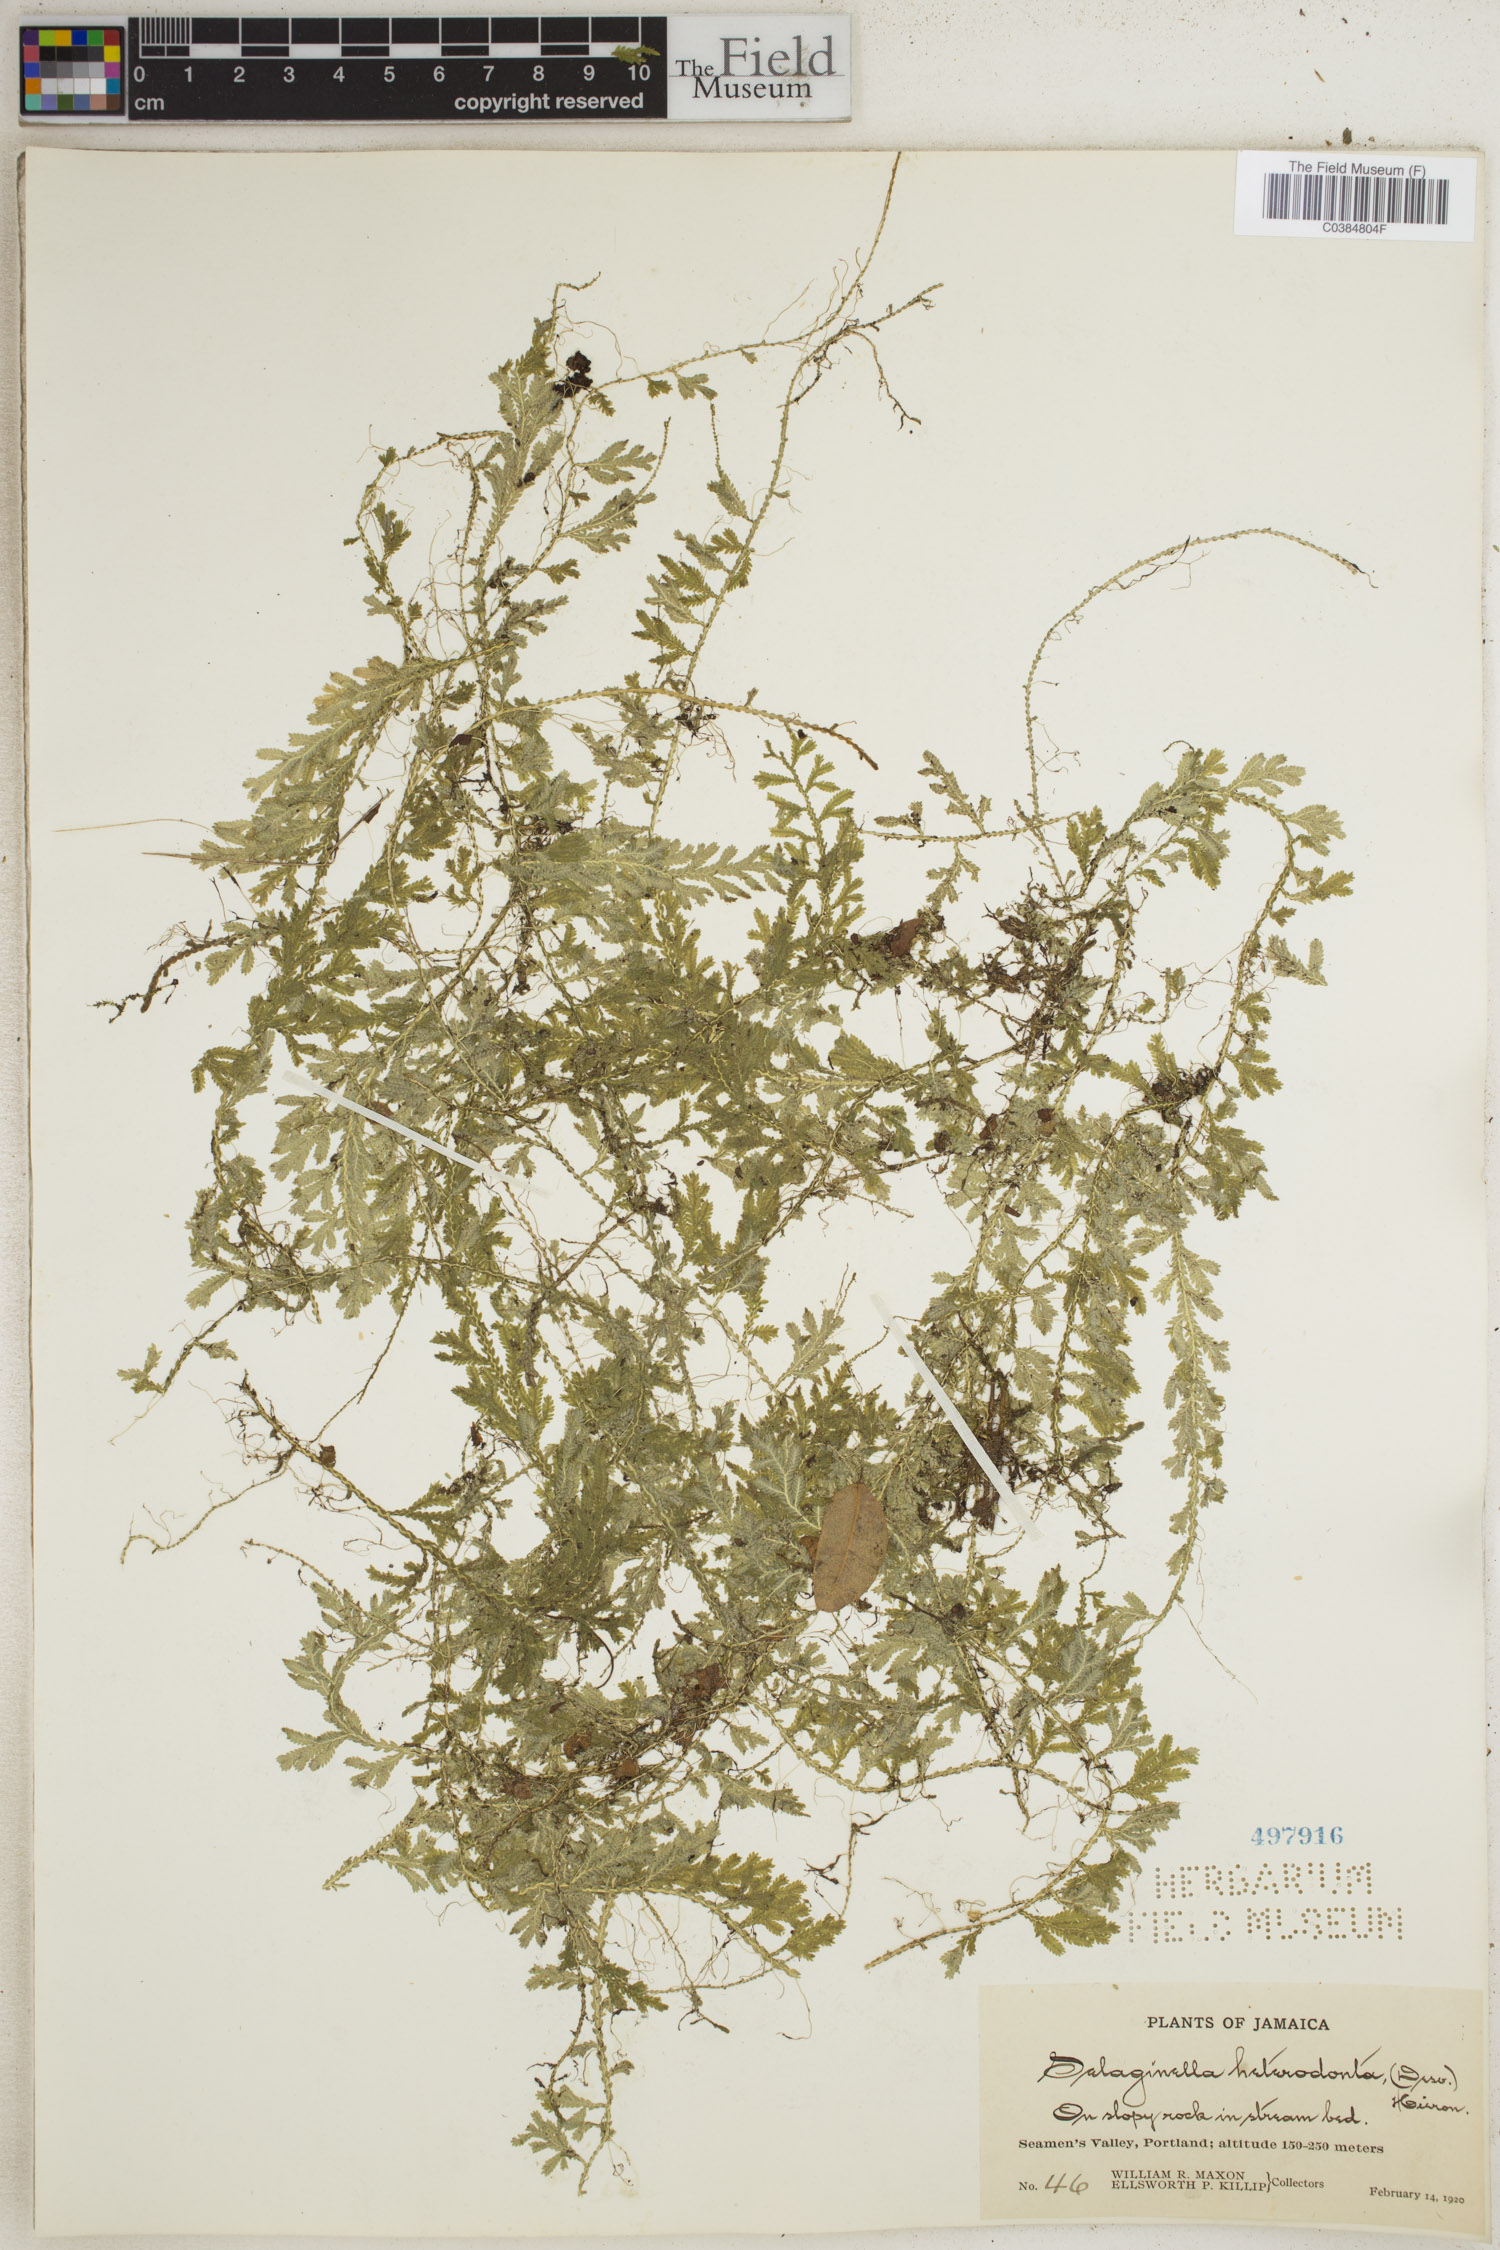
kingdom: Plantae
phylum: Tracheophyta
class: Lycopodiopsida
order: Selaginellales
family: Selaginellaceae
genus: Selaginella
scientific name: Selaginella heterodonta
